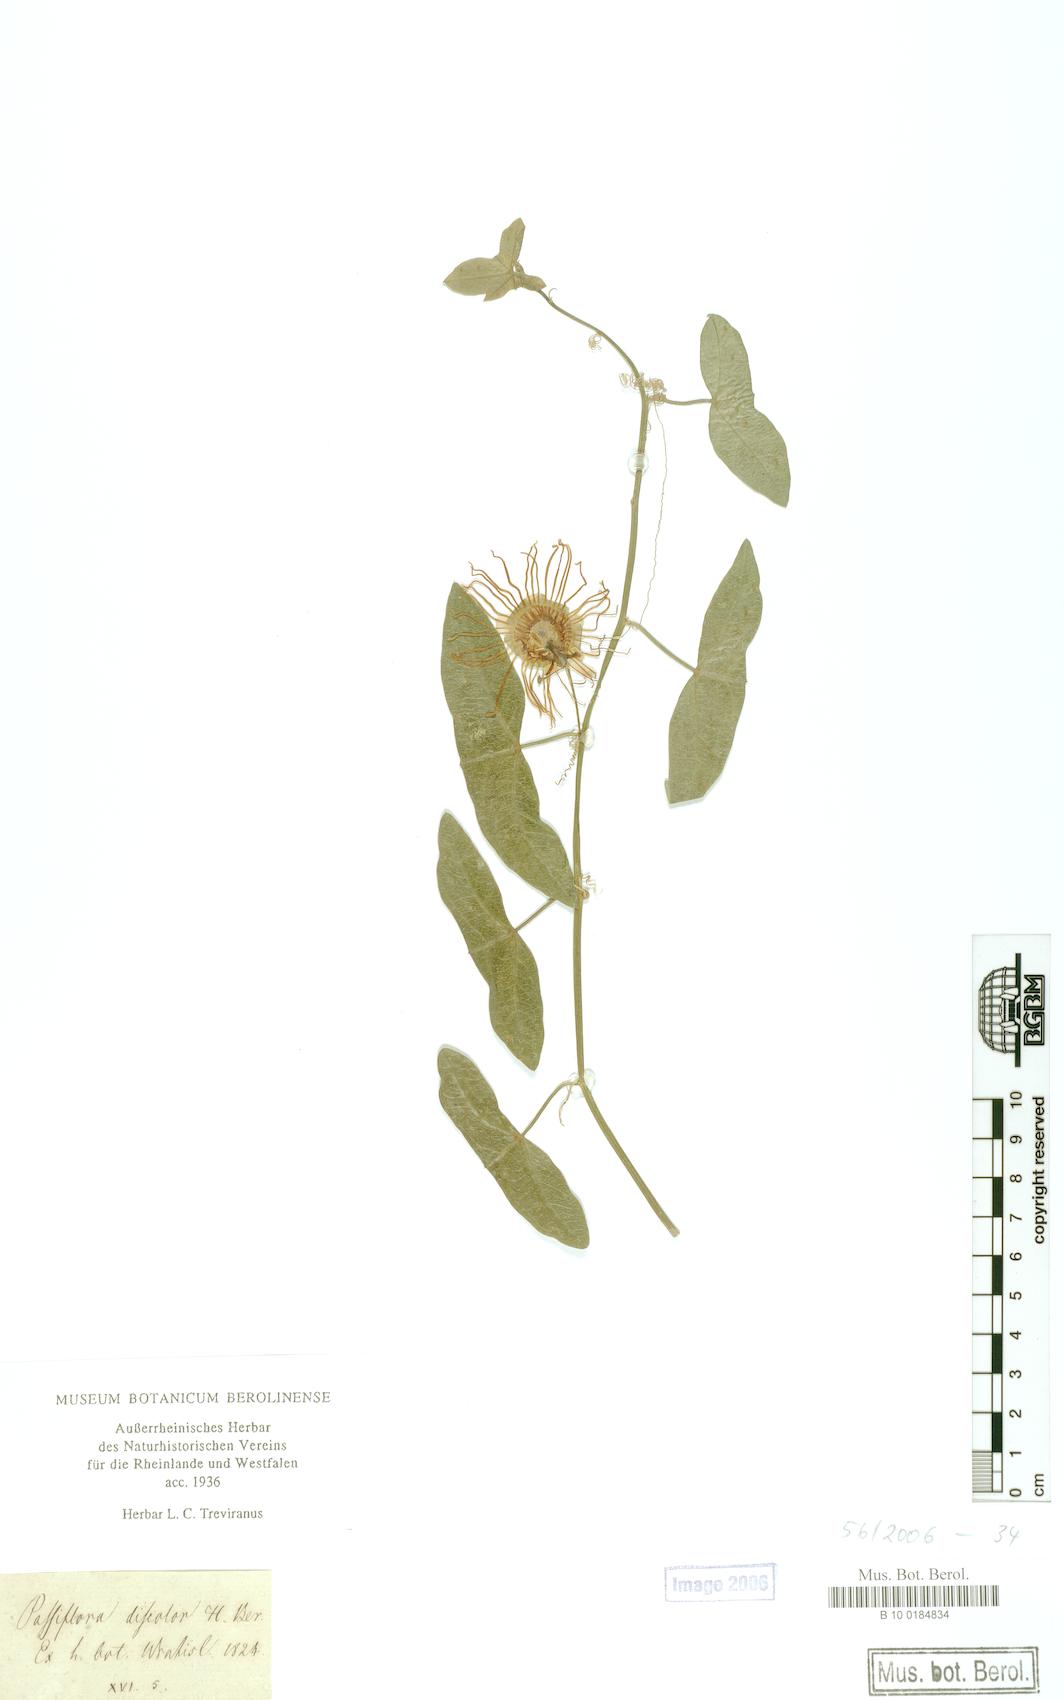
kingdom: Plantae
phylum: Tracheophyta
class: Magnoliopsida
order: Malpighiales
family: Passifloraceae
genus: Passiflora
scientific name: Passiflora misera
